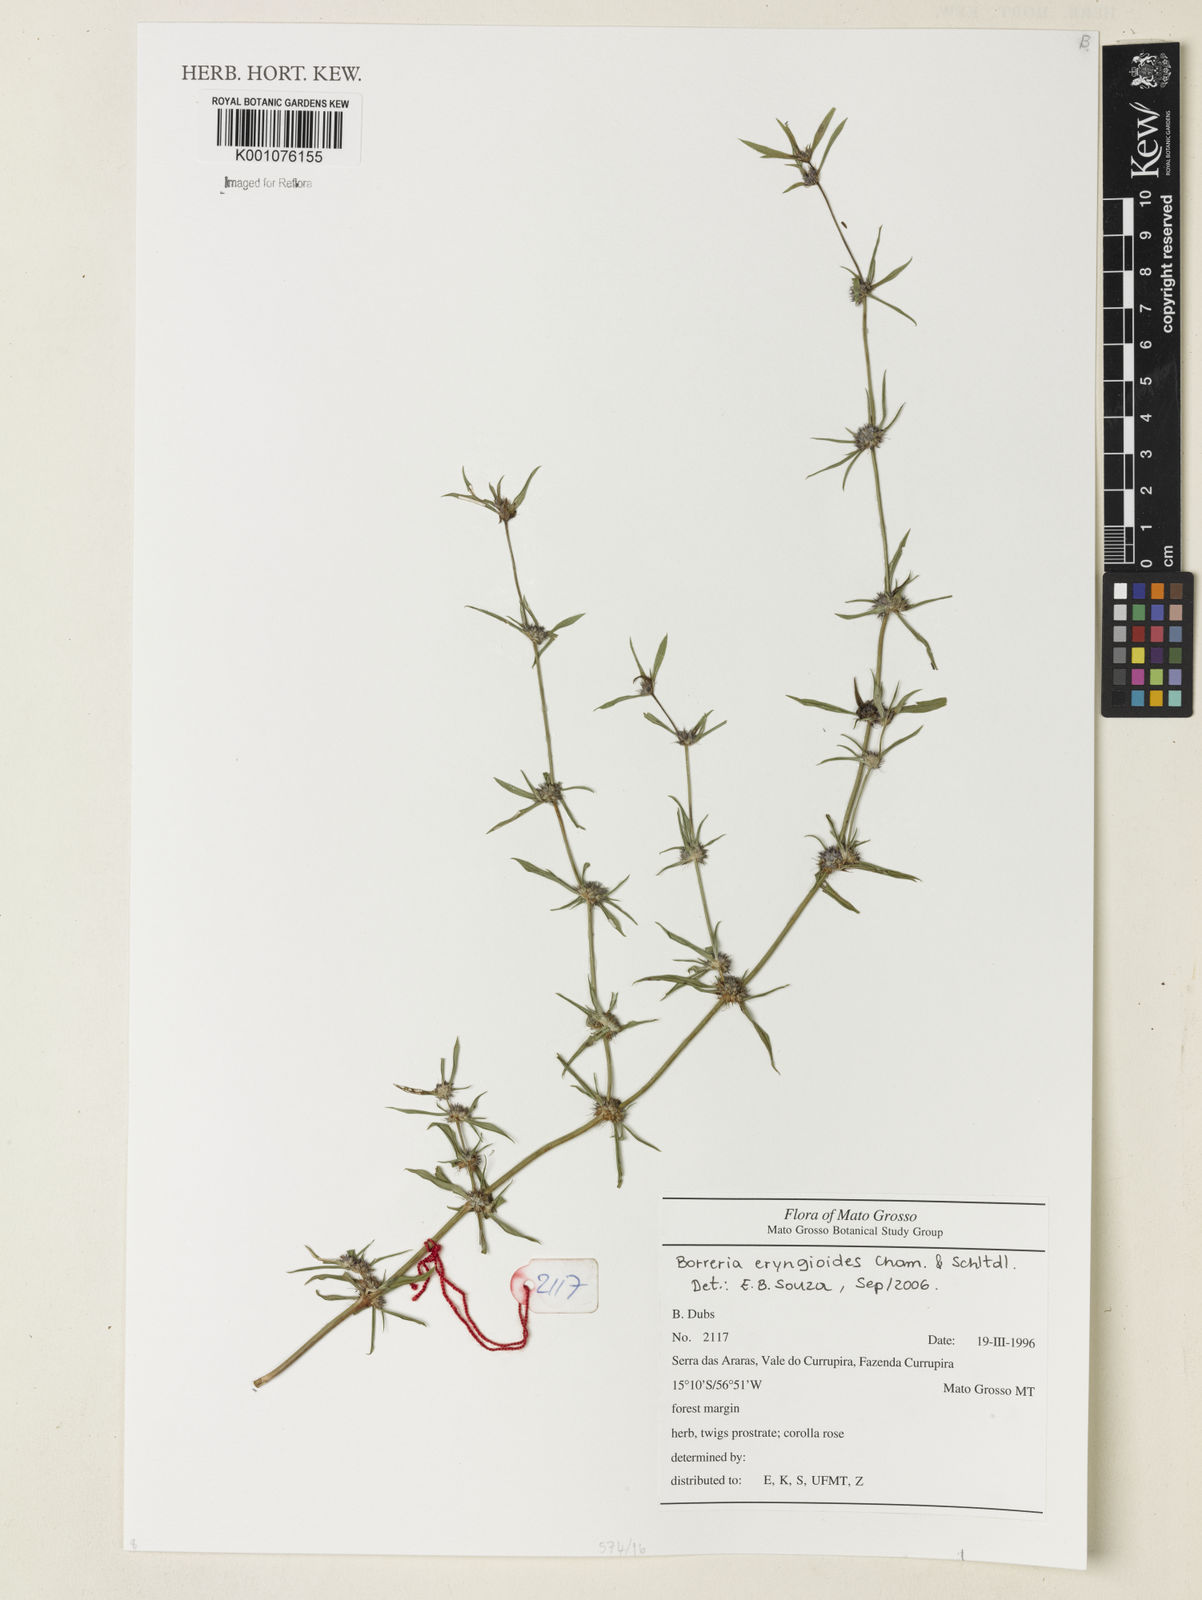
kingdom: Plantae
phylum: Tracheophyta
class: Magnoliopsida
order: Gentianales
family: Rubiaceae
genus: Spermacoce
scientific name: Spermacoce eryngioides
